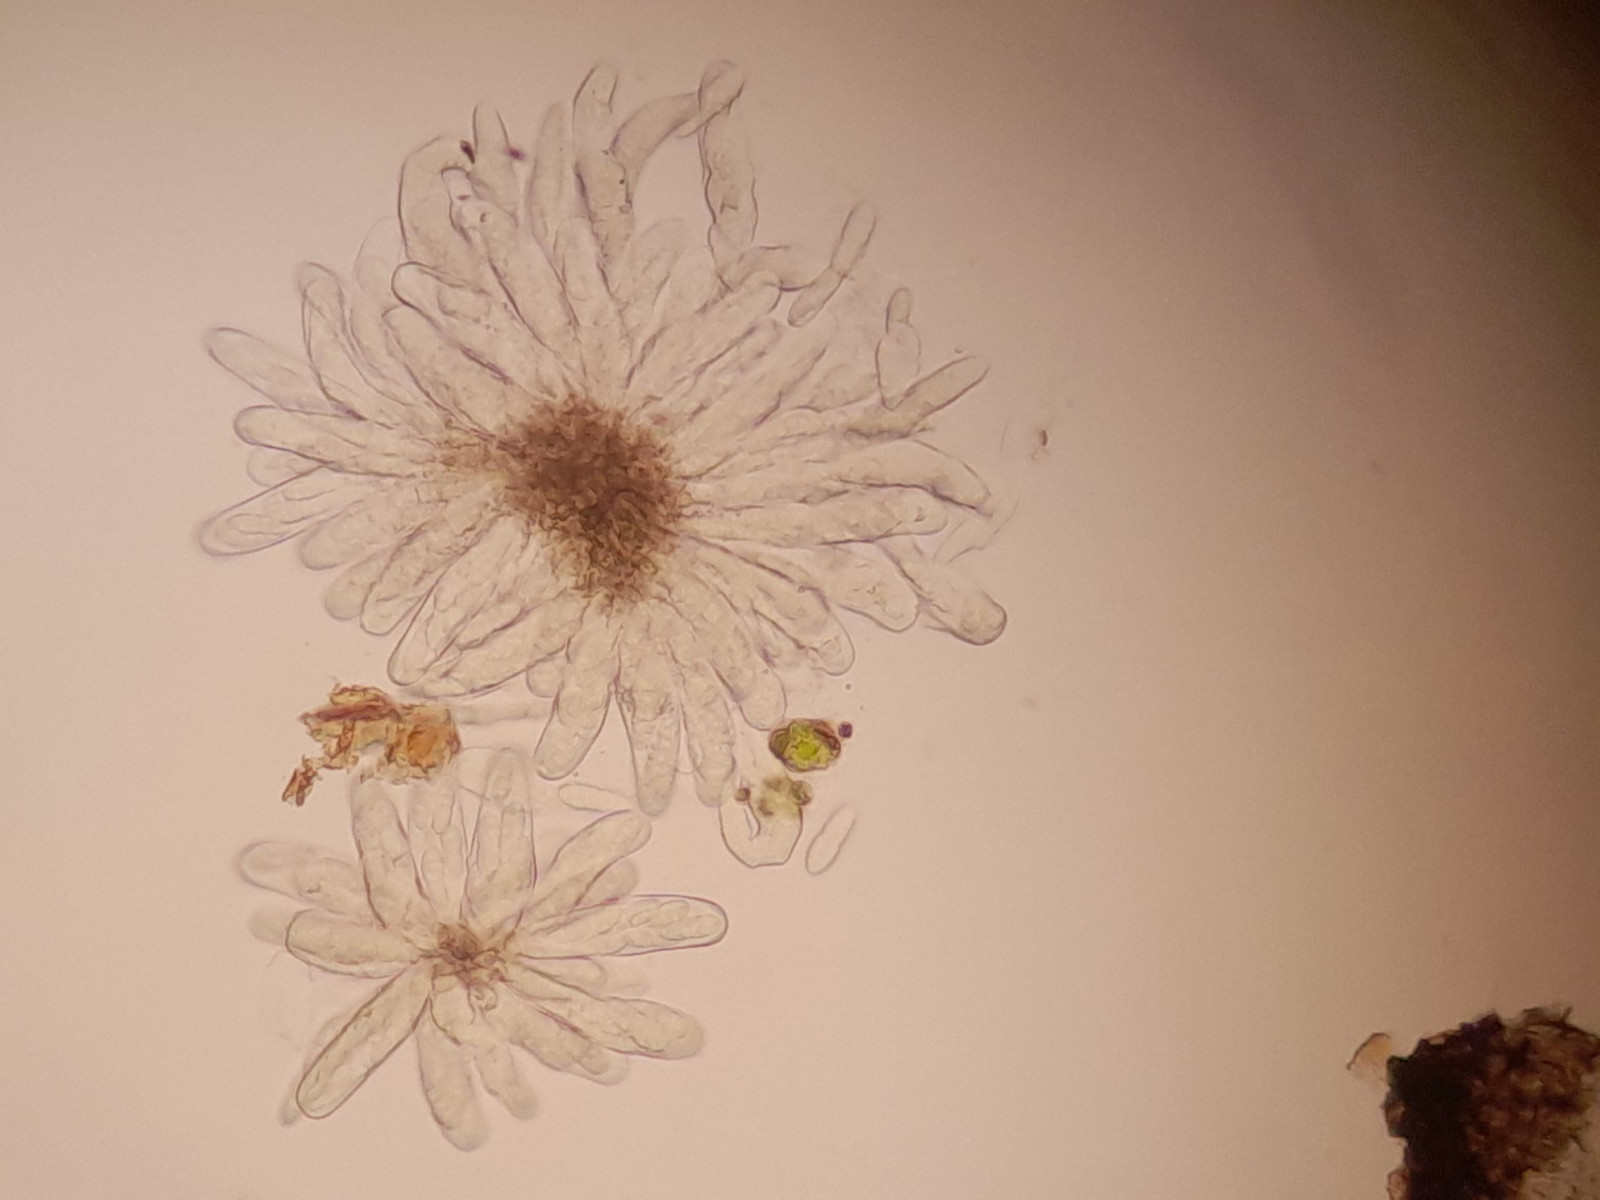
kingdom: Fungi
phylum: Ascomycota
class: Dothideomycetes
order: Dothideales
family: Saccotheciaceae
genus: Saccothecium
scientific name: Saccothecium sepincola
